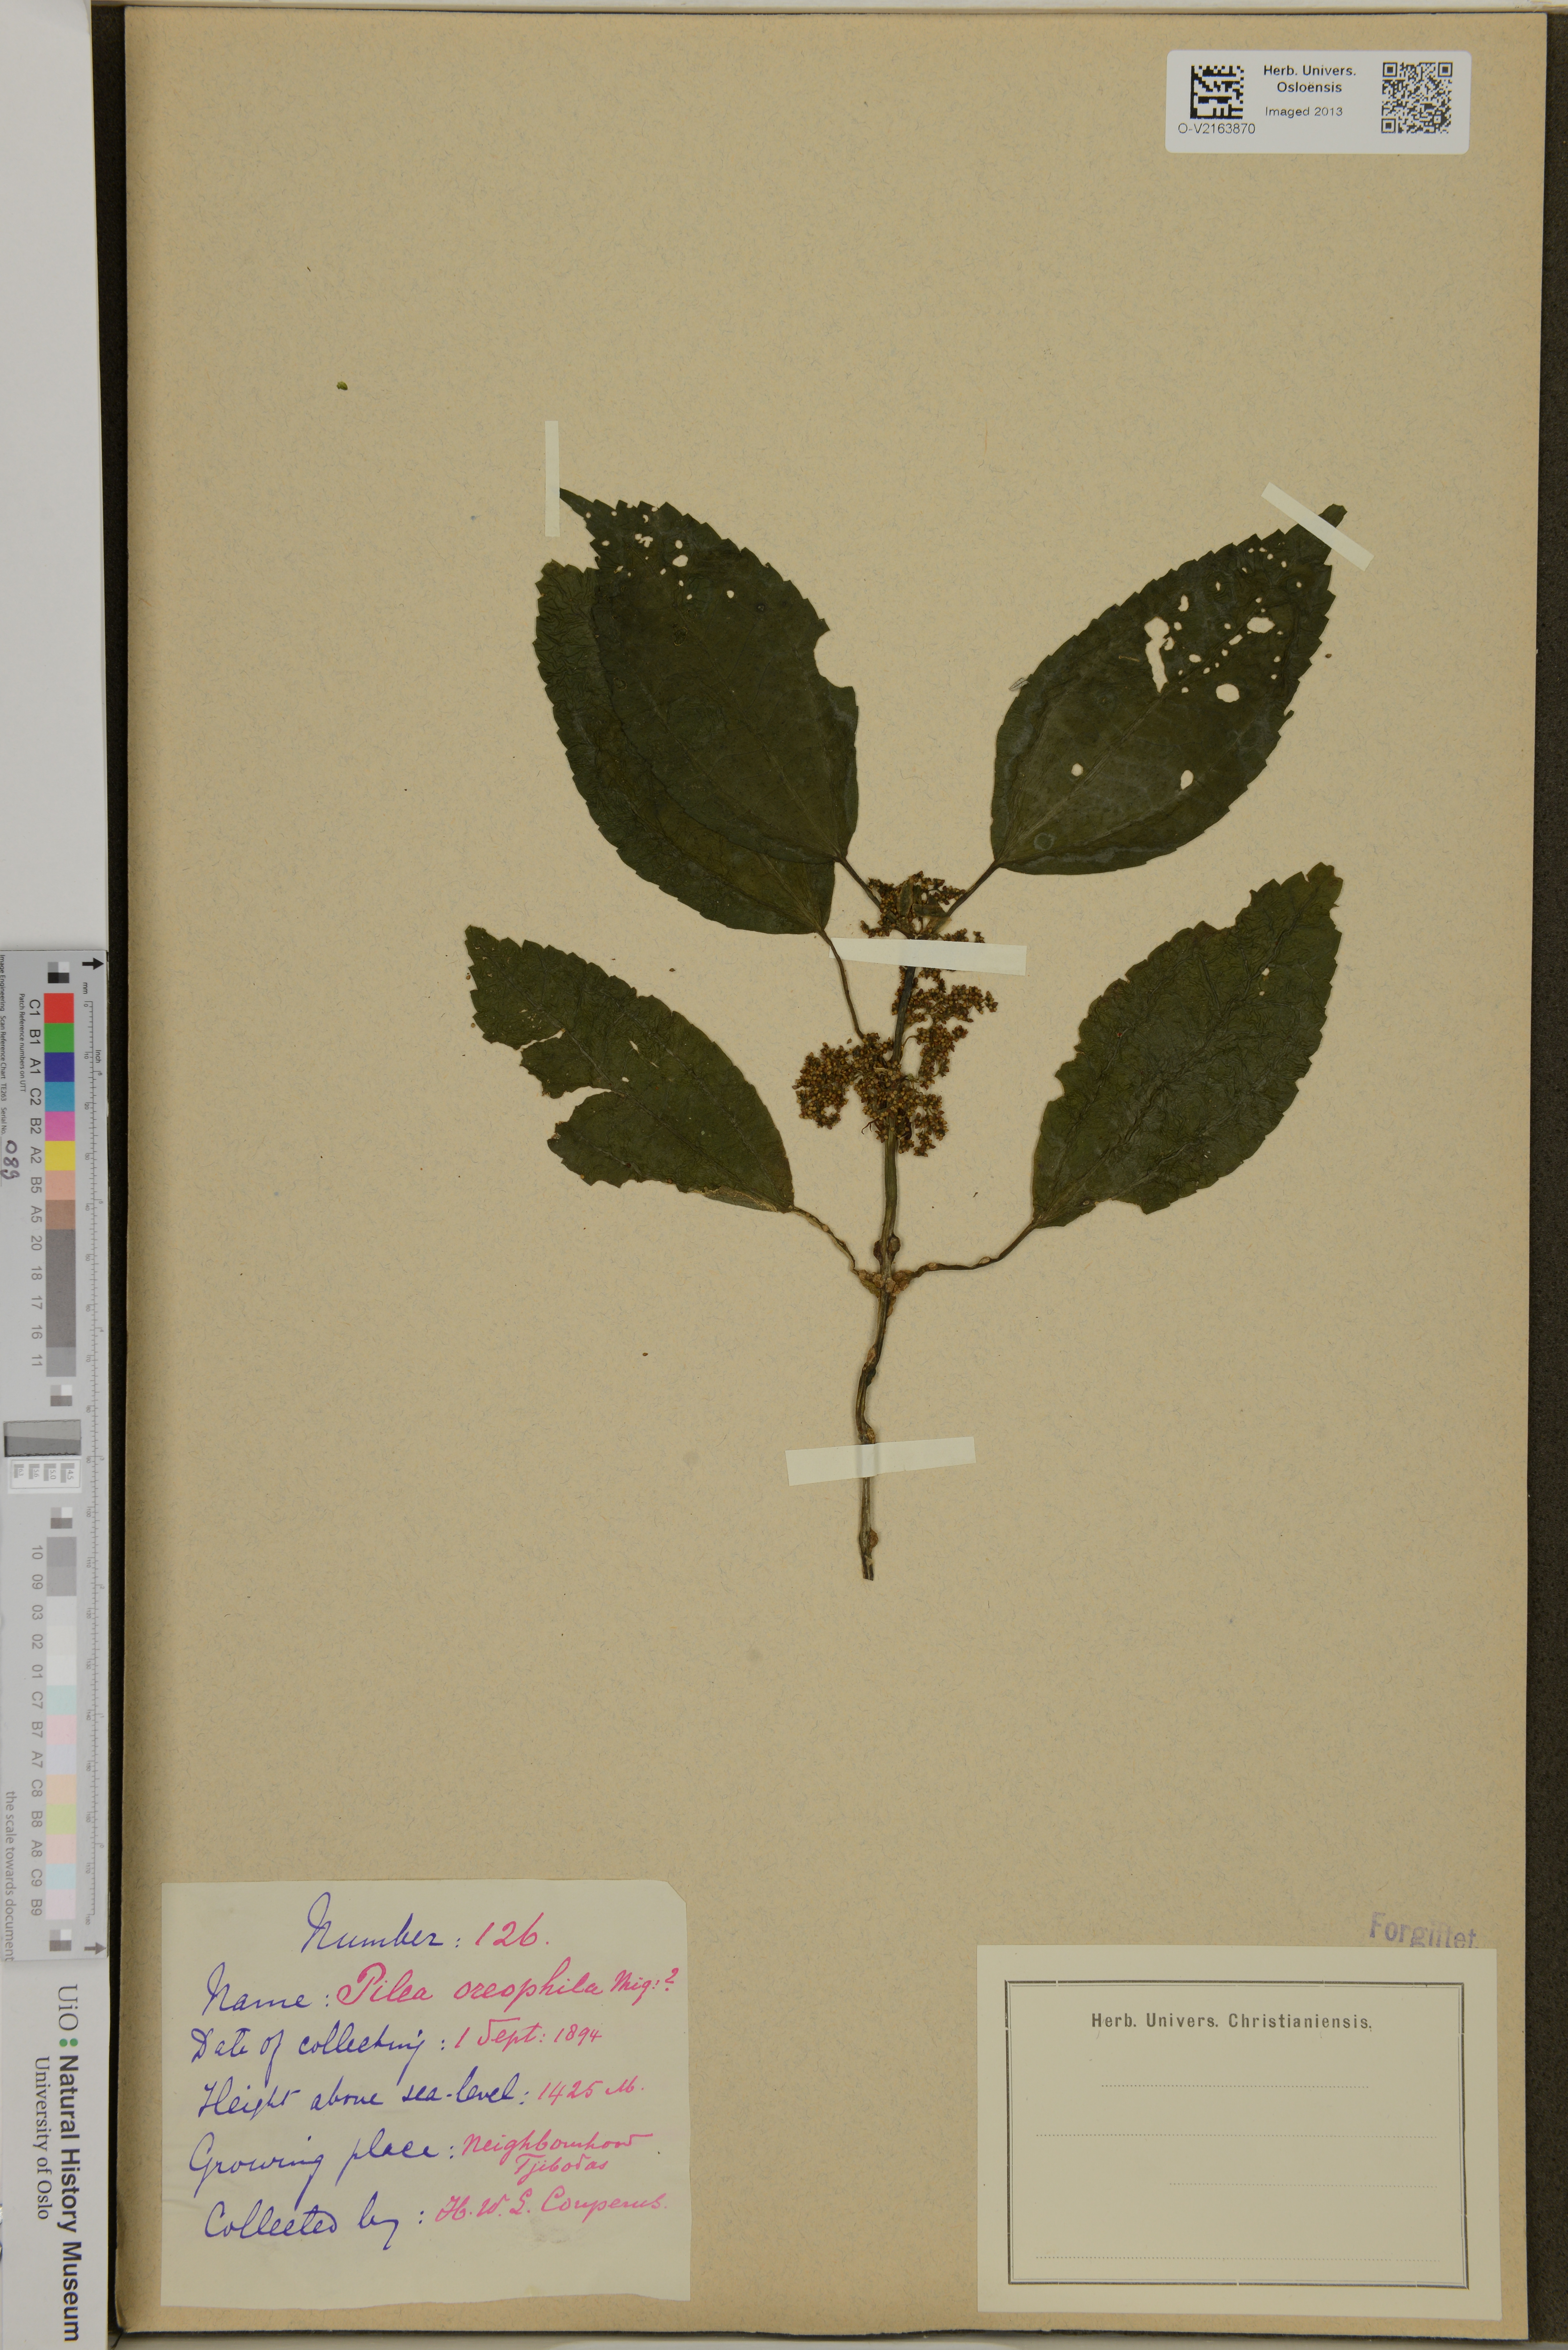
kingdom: Plantae
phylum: Tracheophyta
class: Magnoliopsida
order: Rosales
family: Urticaceae
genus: Pilea
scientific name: Pilea melastomoides
